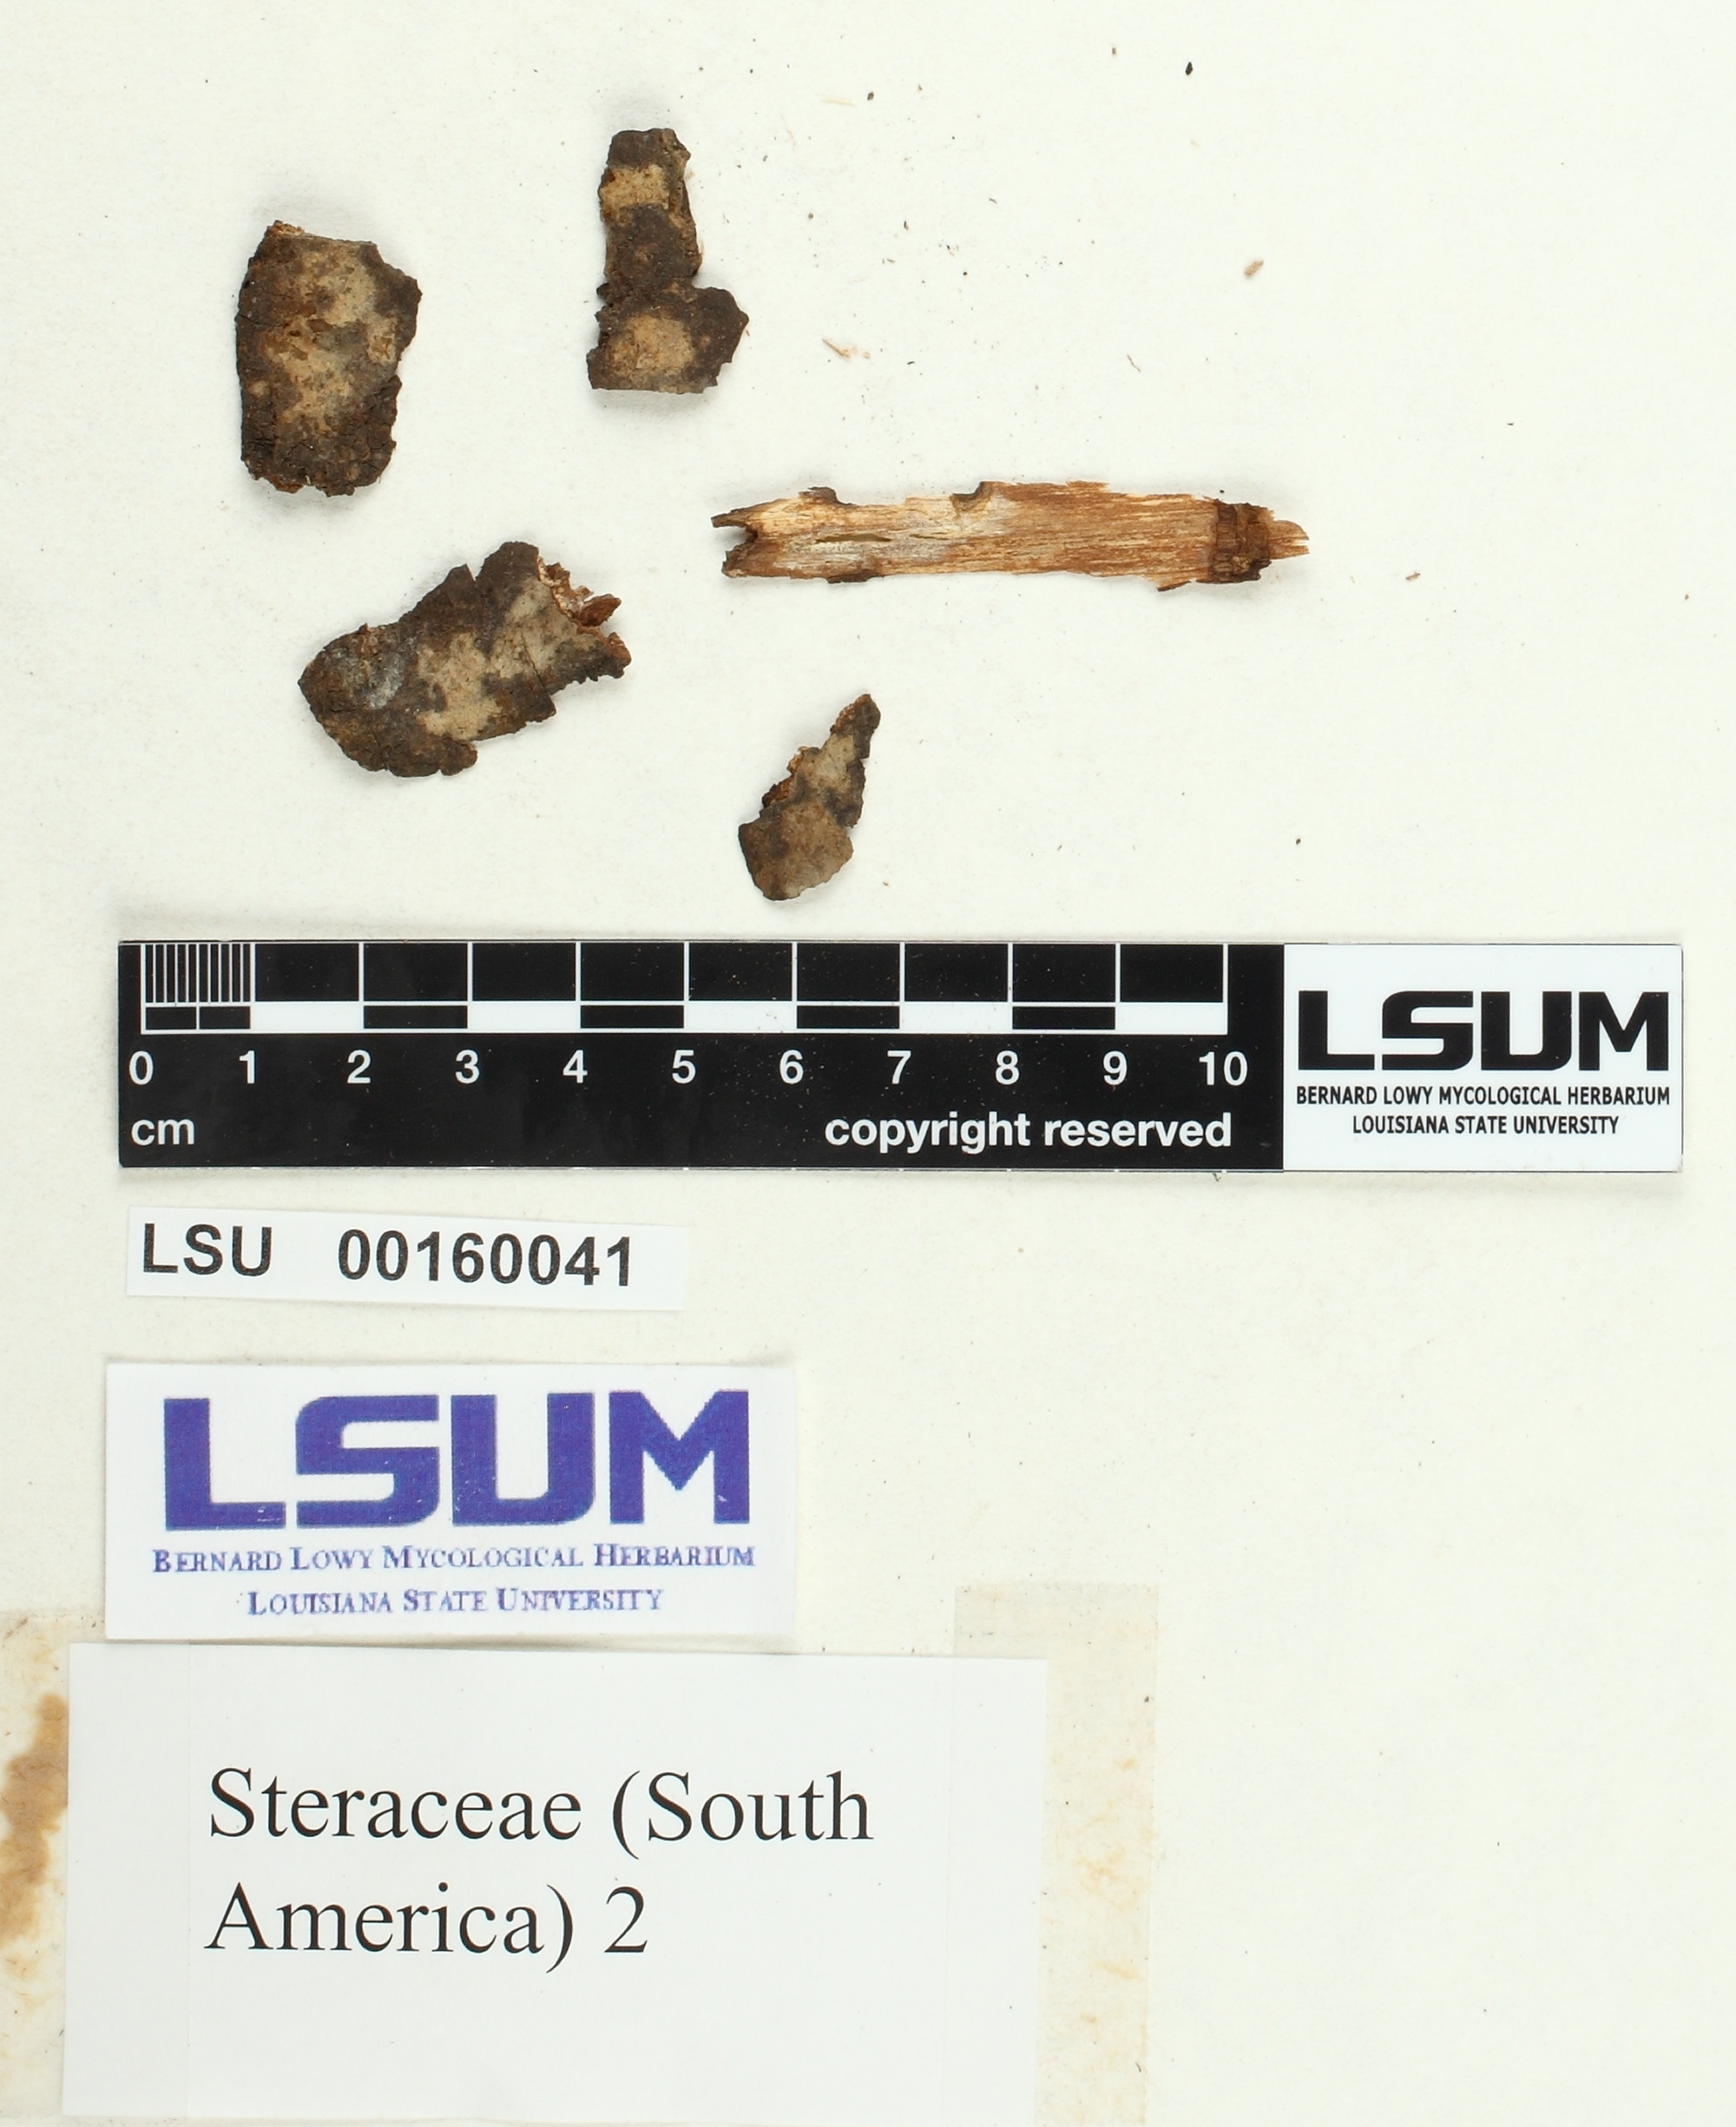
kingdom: Fungi
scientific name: Fungi
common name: Fungi
